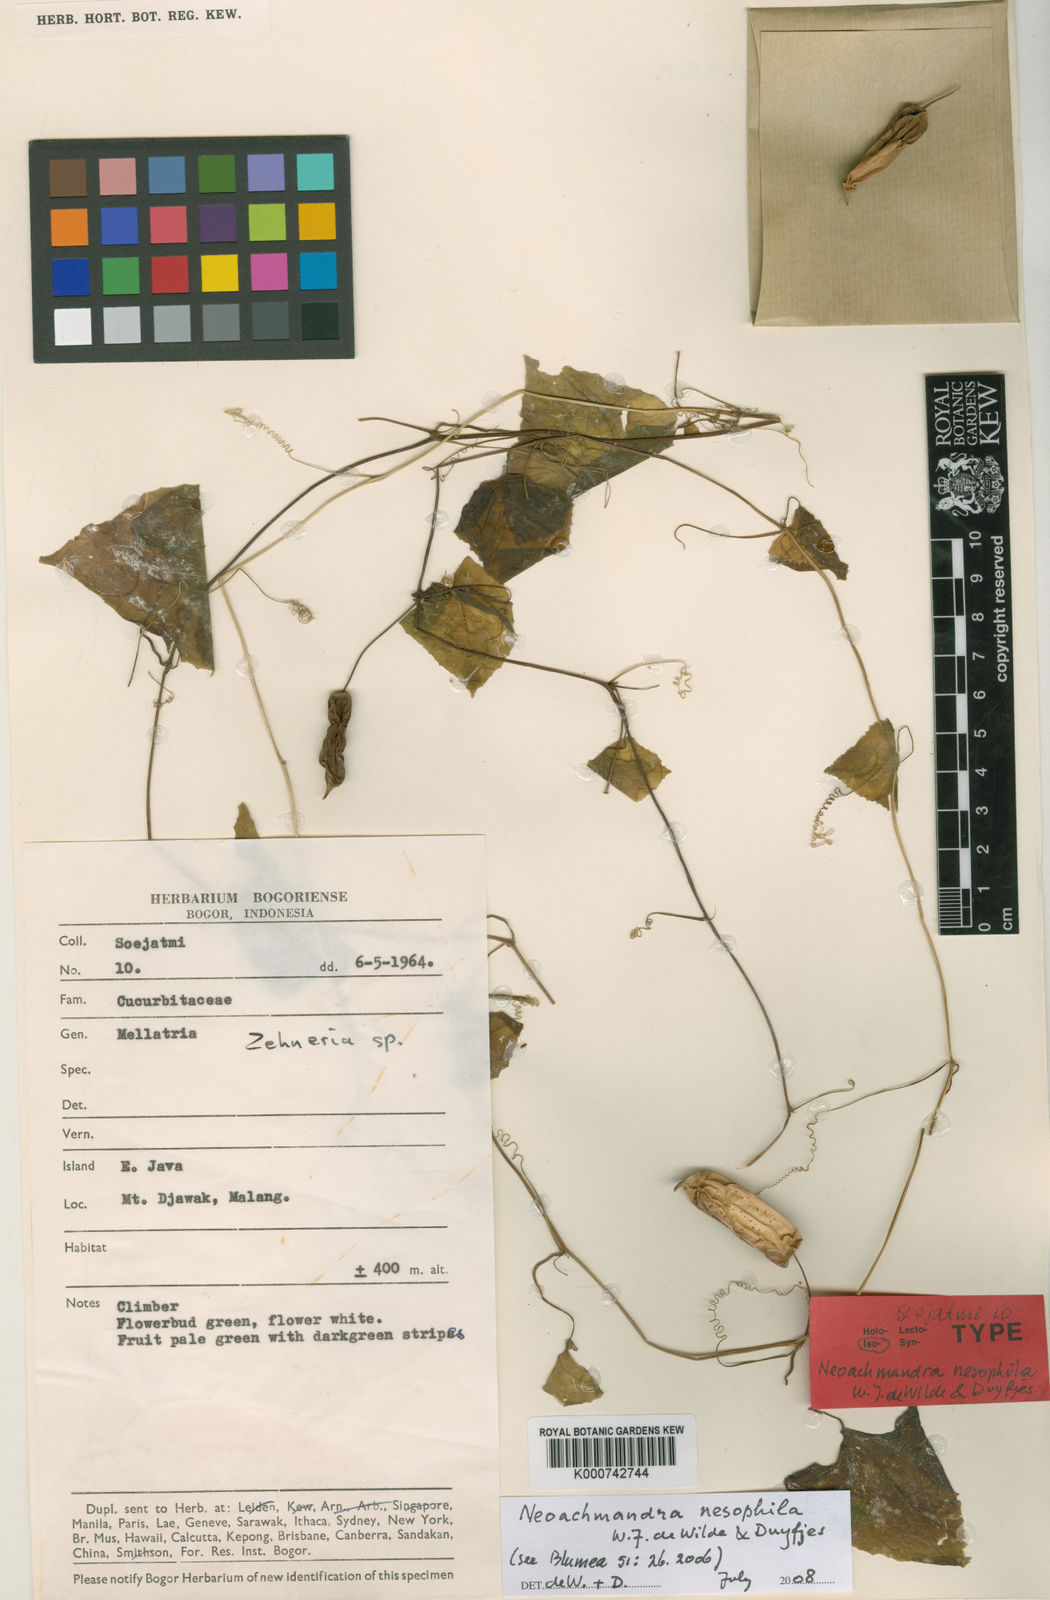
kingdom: Plantae
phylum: Tracheophyta
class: Magnoliopsida
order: Cucurbitales
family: Cucurbitaceae
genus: Zehneria
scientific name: Zehneria nesophila
